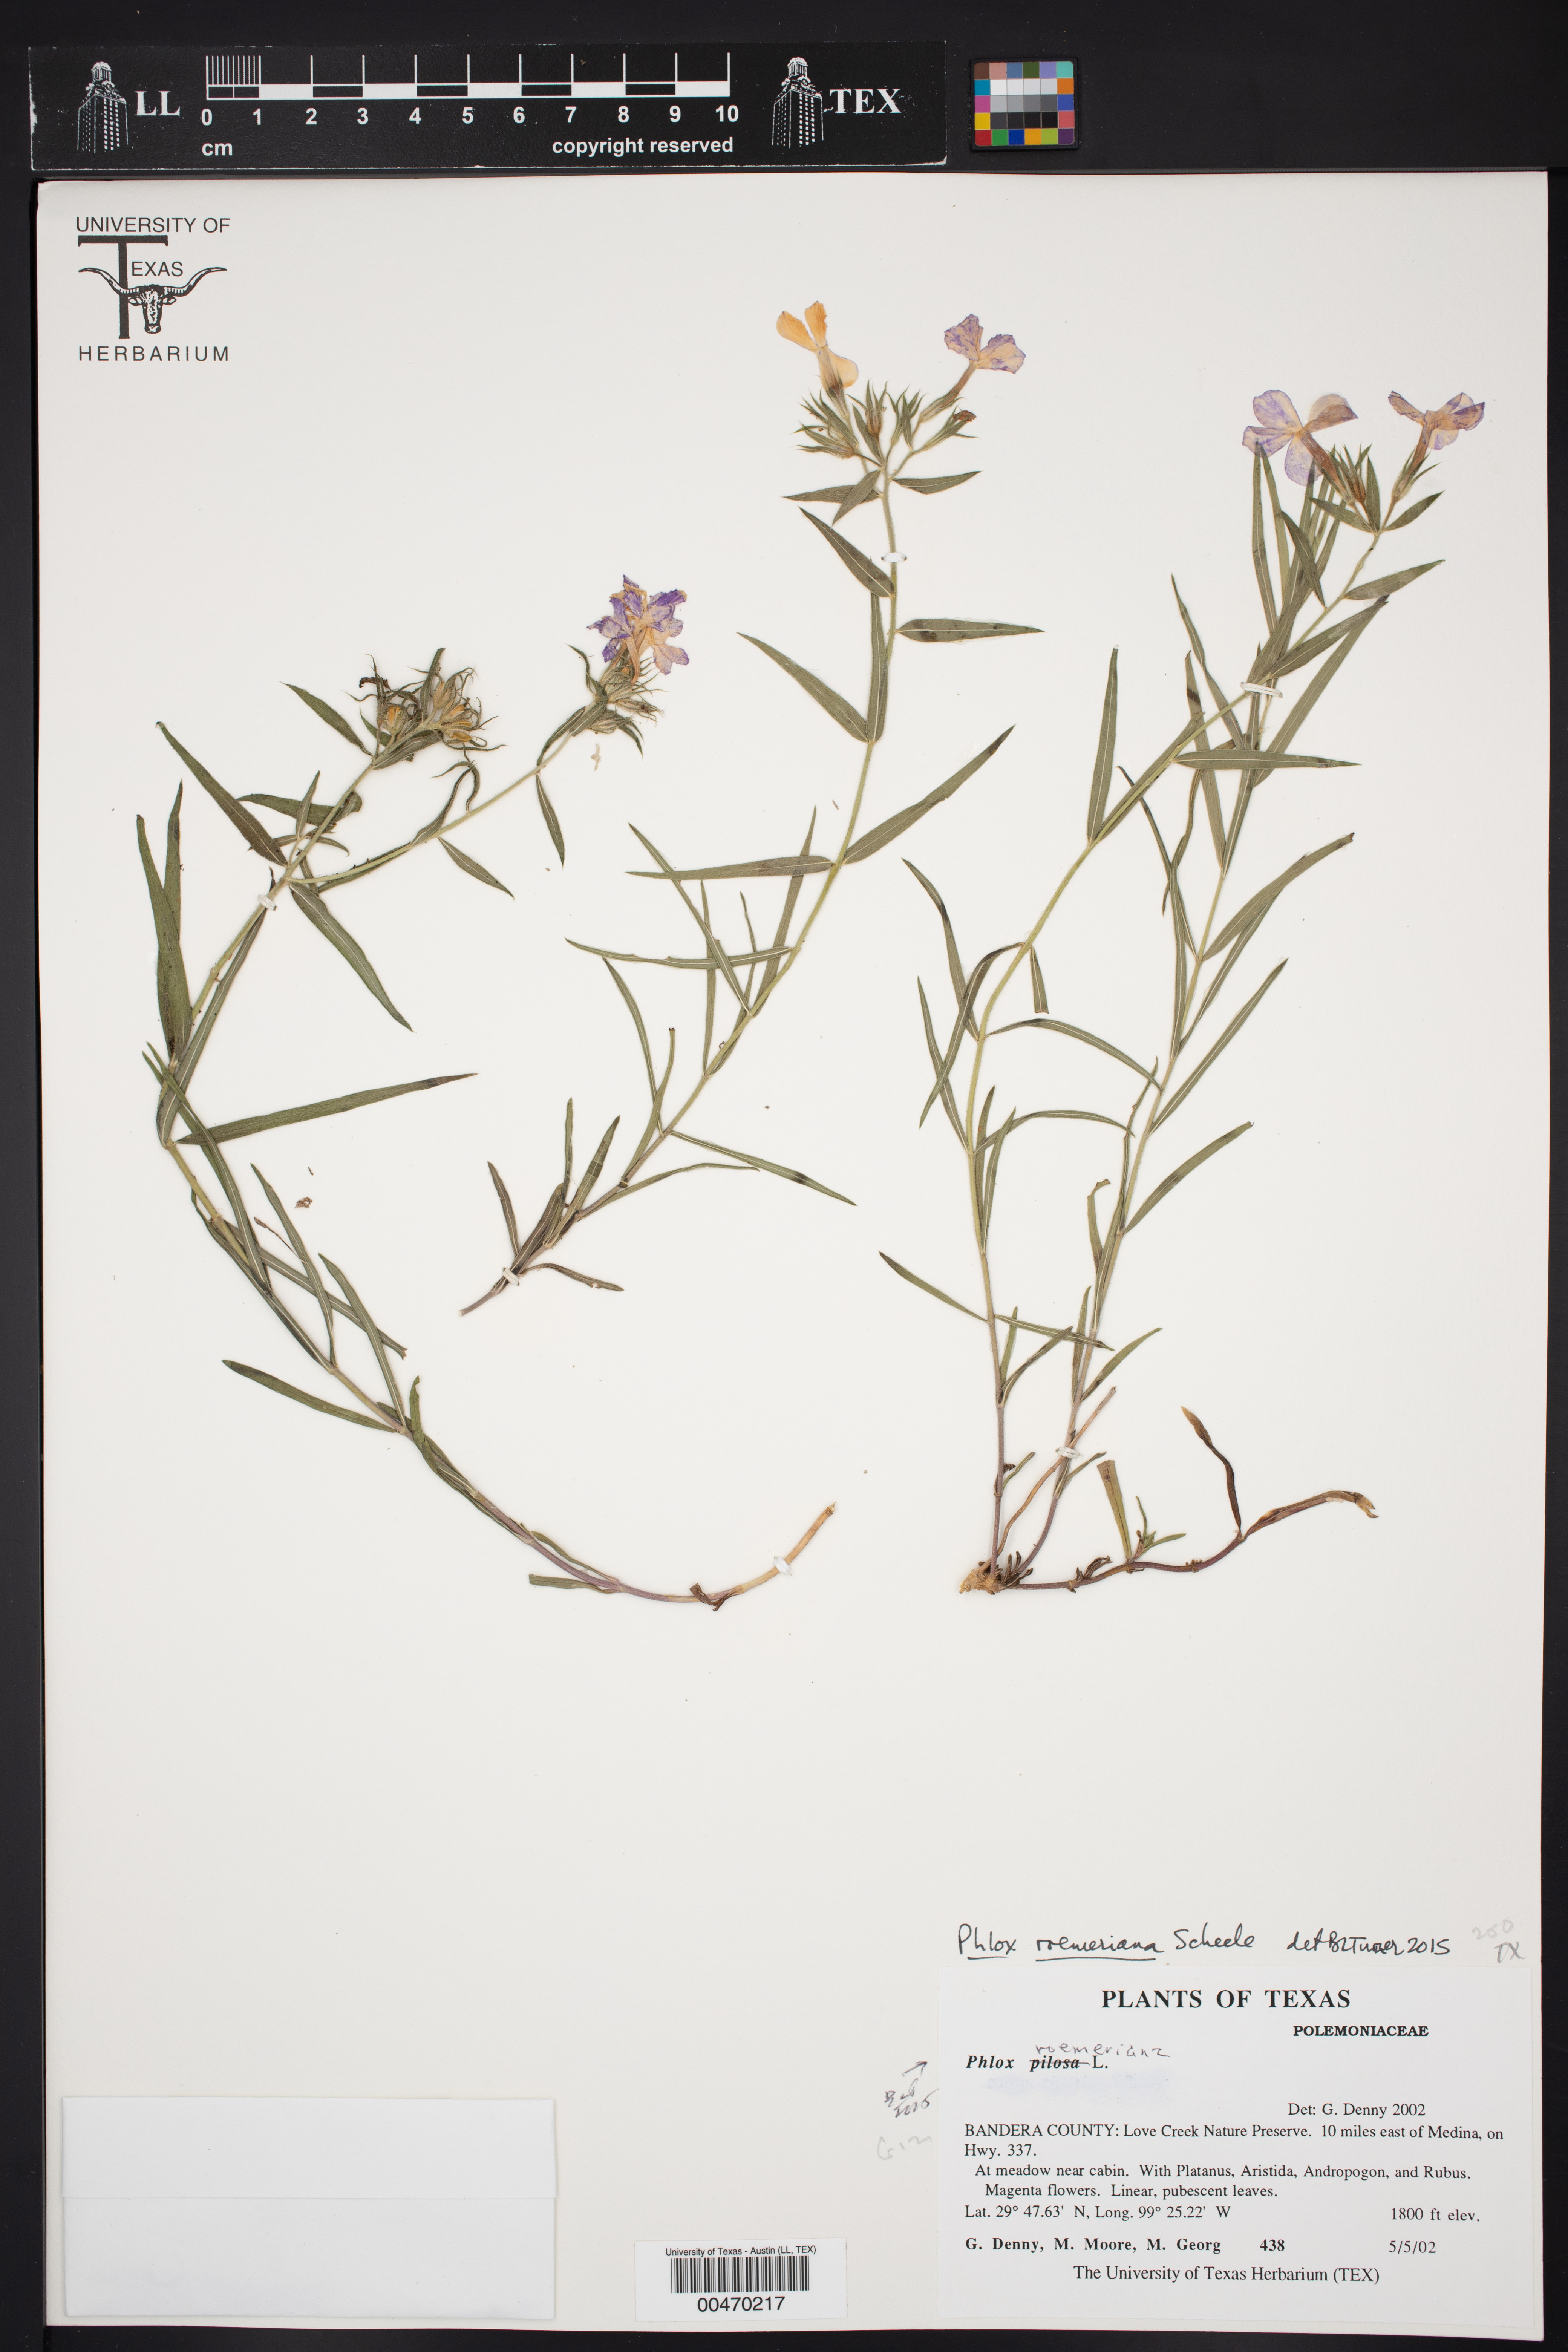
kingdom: Plantae
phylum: Tracheophyta
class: Magnoliopsida
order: Ericales
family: Polemoniaceae
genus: Phlox
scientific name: Phlox roemeriana
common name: Roemer's phlox
